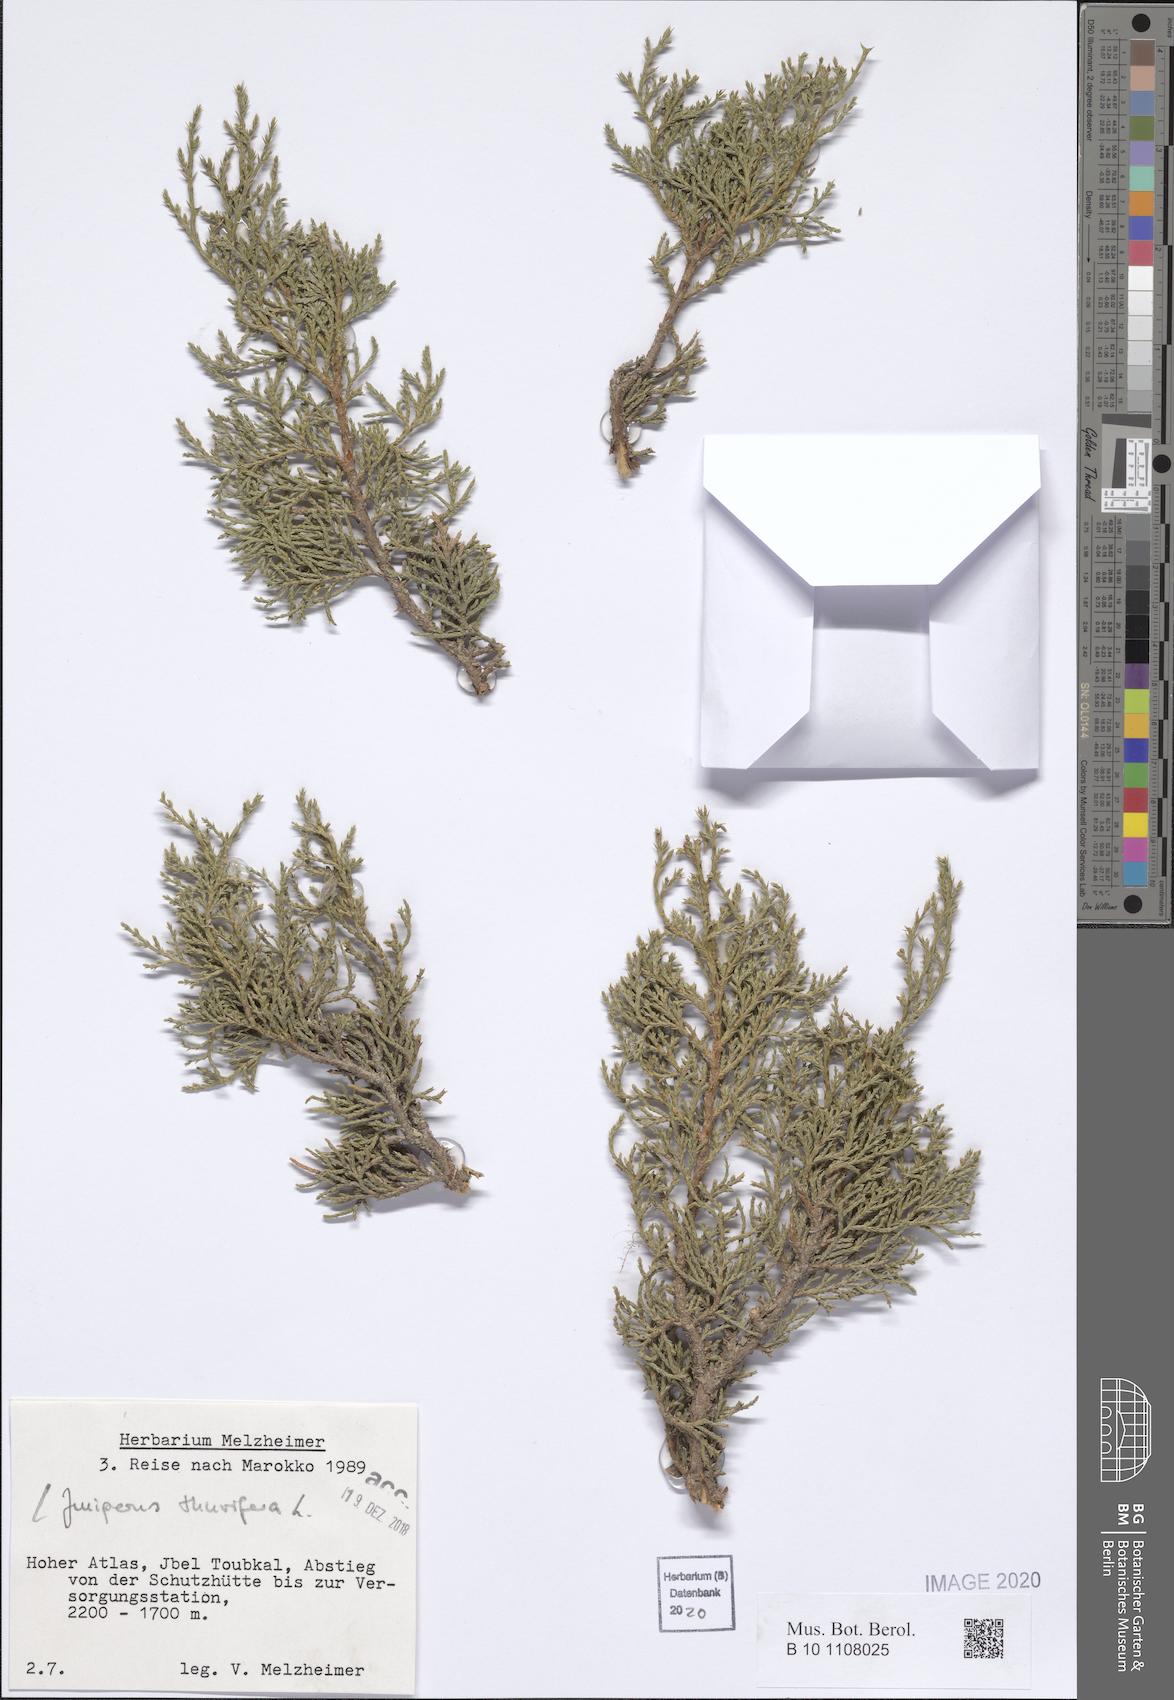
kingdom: Plantae
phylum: Tracheophyta
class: Pinopsida
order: Pinales
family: Cupressaceae
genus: Juniperus
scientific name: Juniperus thurifera
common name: Incense juniper
